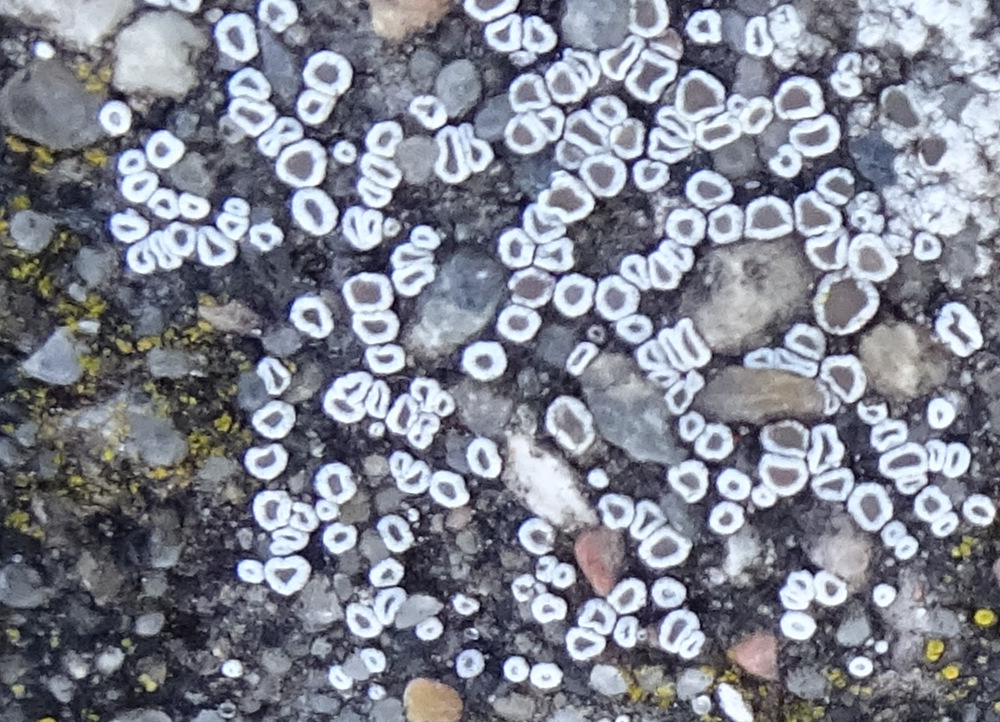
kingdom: Fungi
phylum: Ascomycota
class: Lecanoromycetes
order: Lecanorales
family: Lecanoraceae
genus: Polyozosia
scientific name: Polyozosia dispersa
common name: spredt kantskivelav
